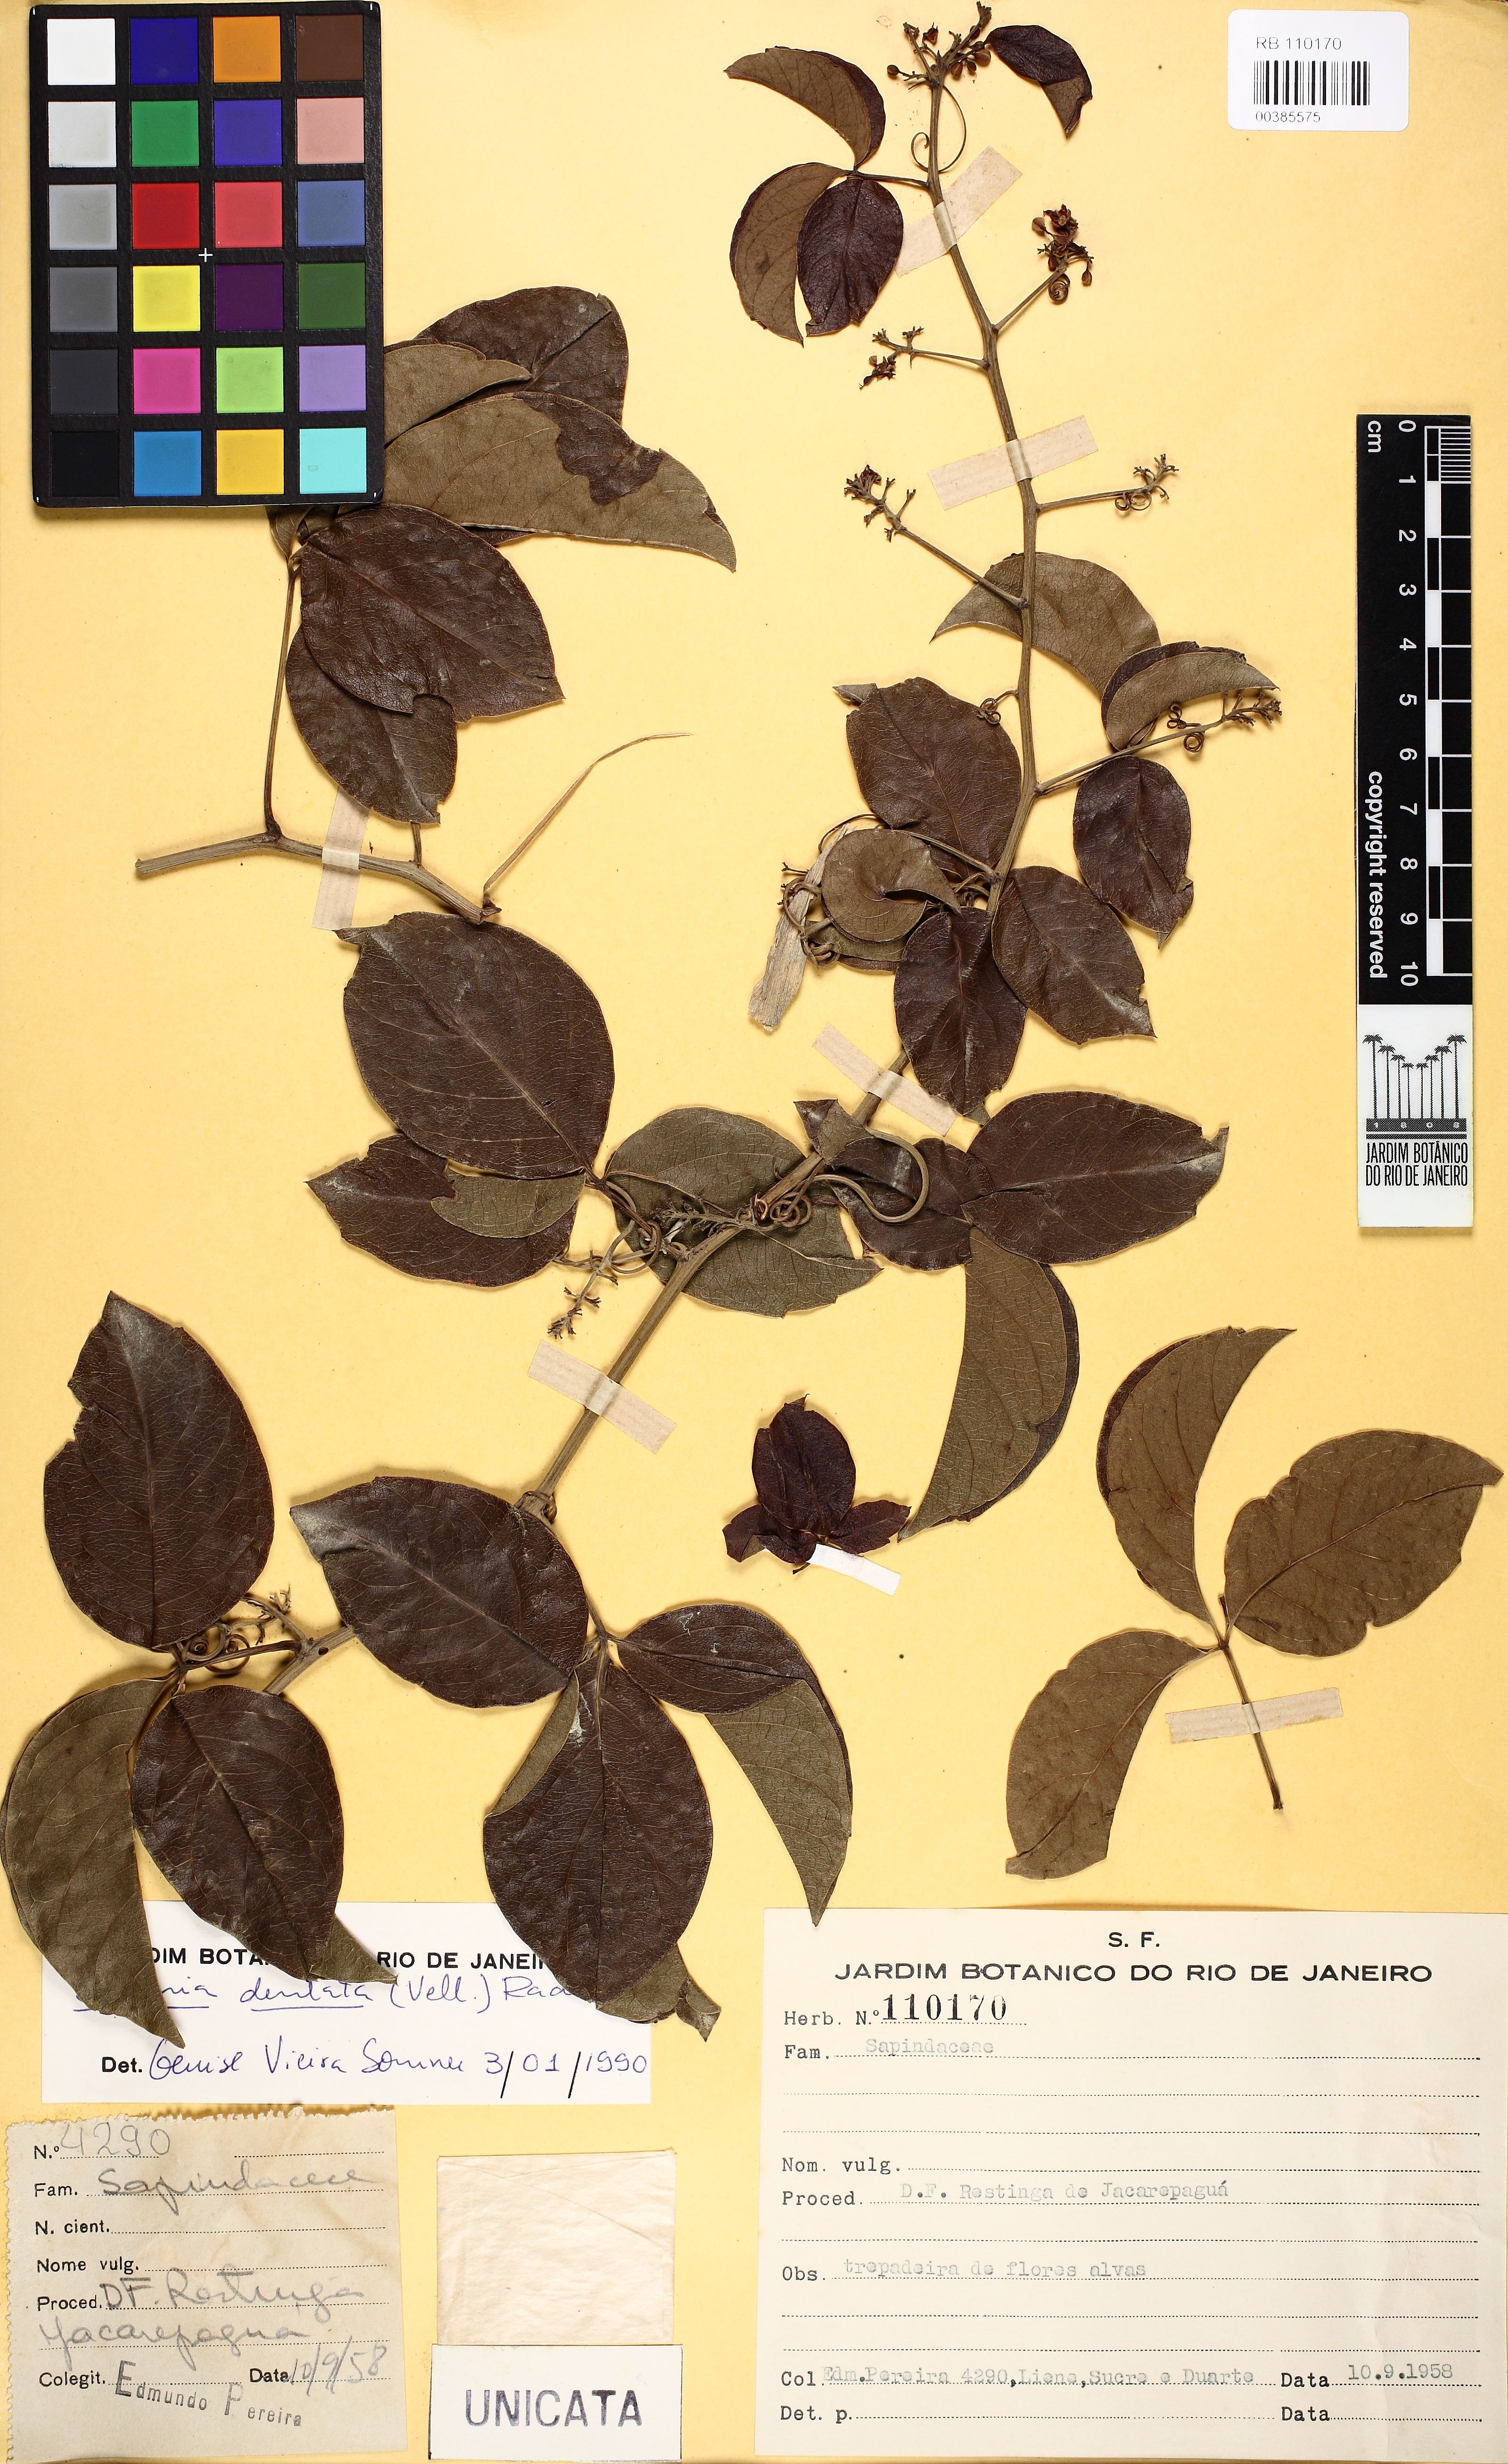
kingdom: Plantae
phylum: Tracheophyta
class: Magnoliopsida
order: Sapindales
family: Sapindaceae
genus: Serjania
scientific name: Serjania dentata
